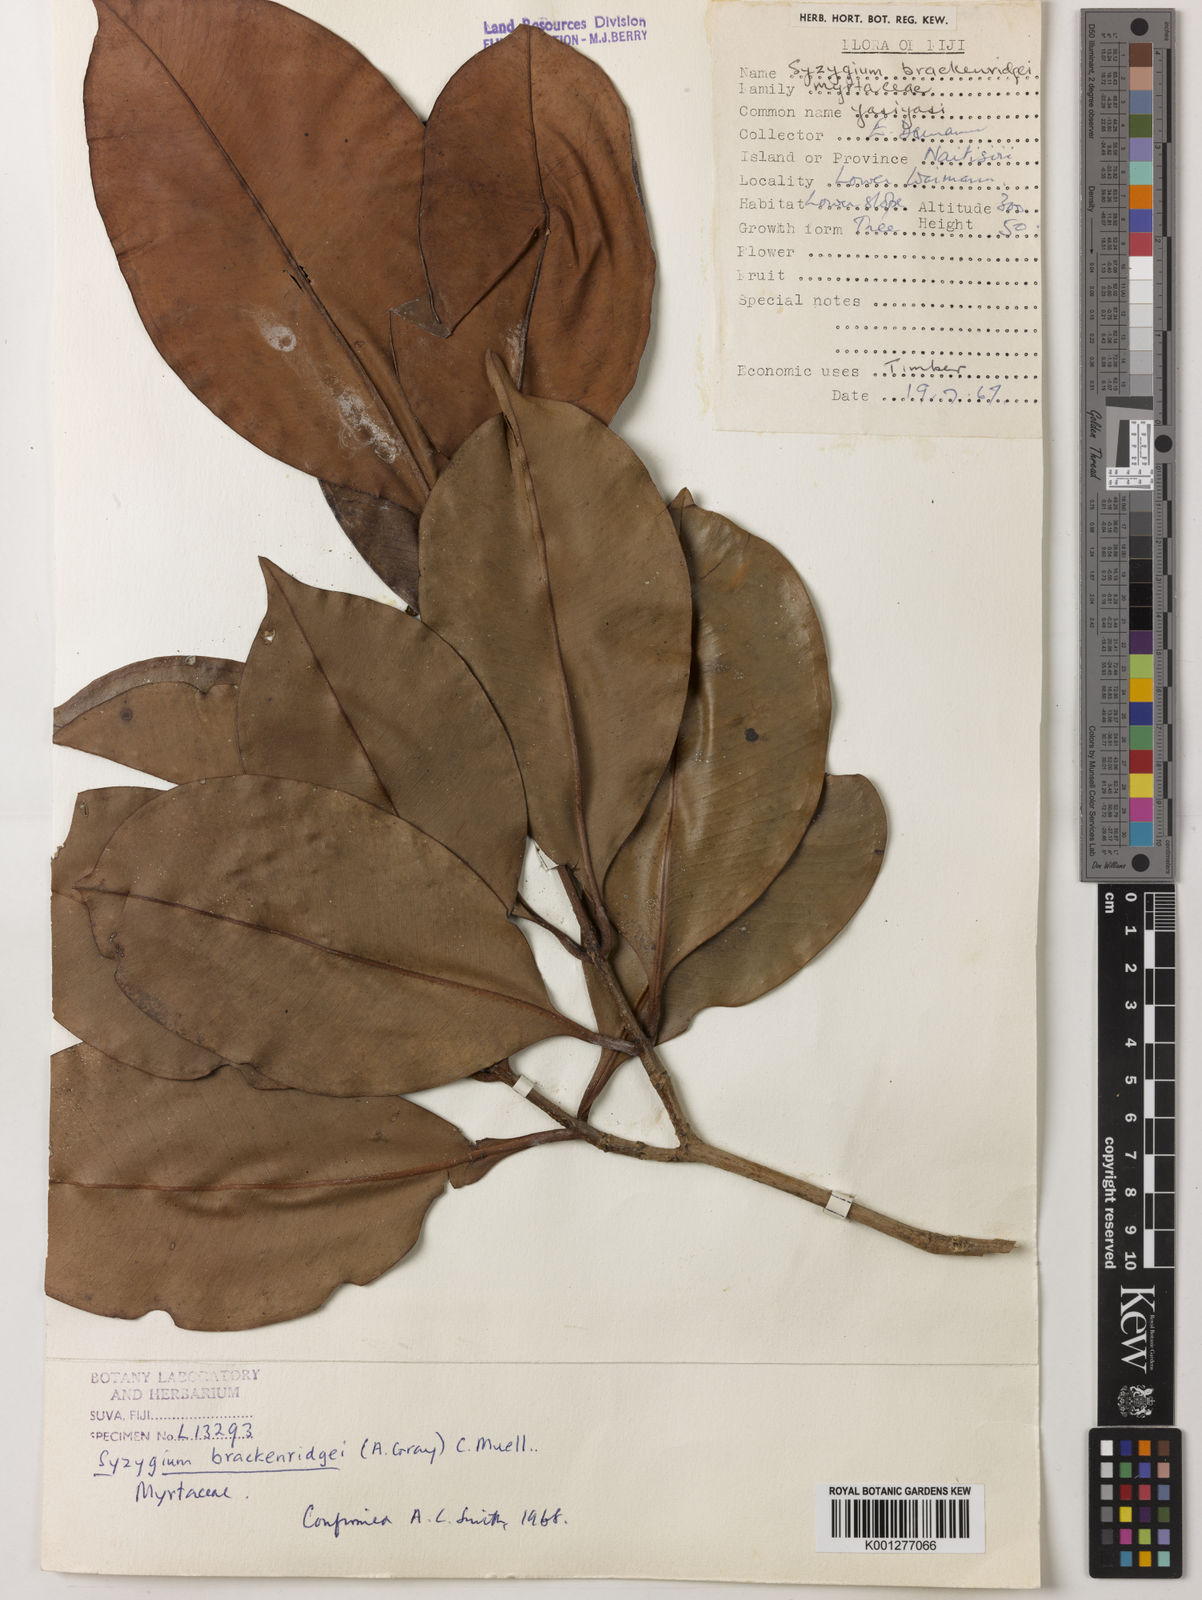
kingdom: Plantae
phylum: Tracheophyta
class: Magnoliopsida
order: Myrtales
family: Myrtaceae
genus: Syzygium
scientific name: Syzygium
